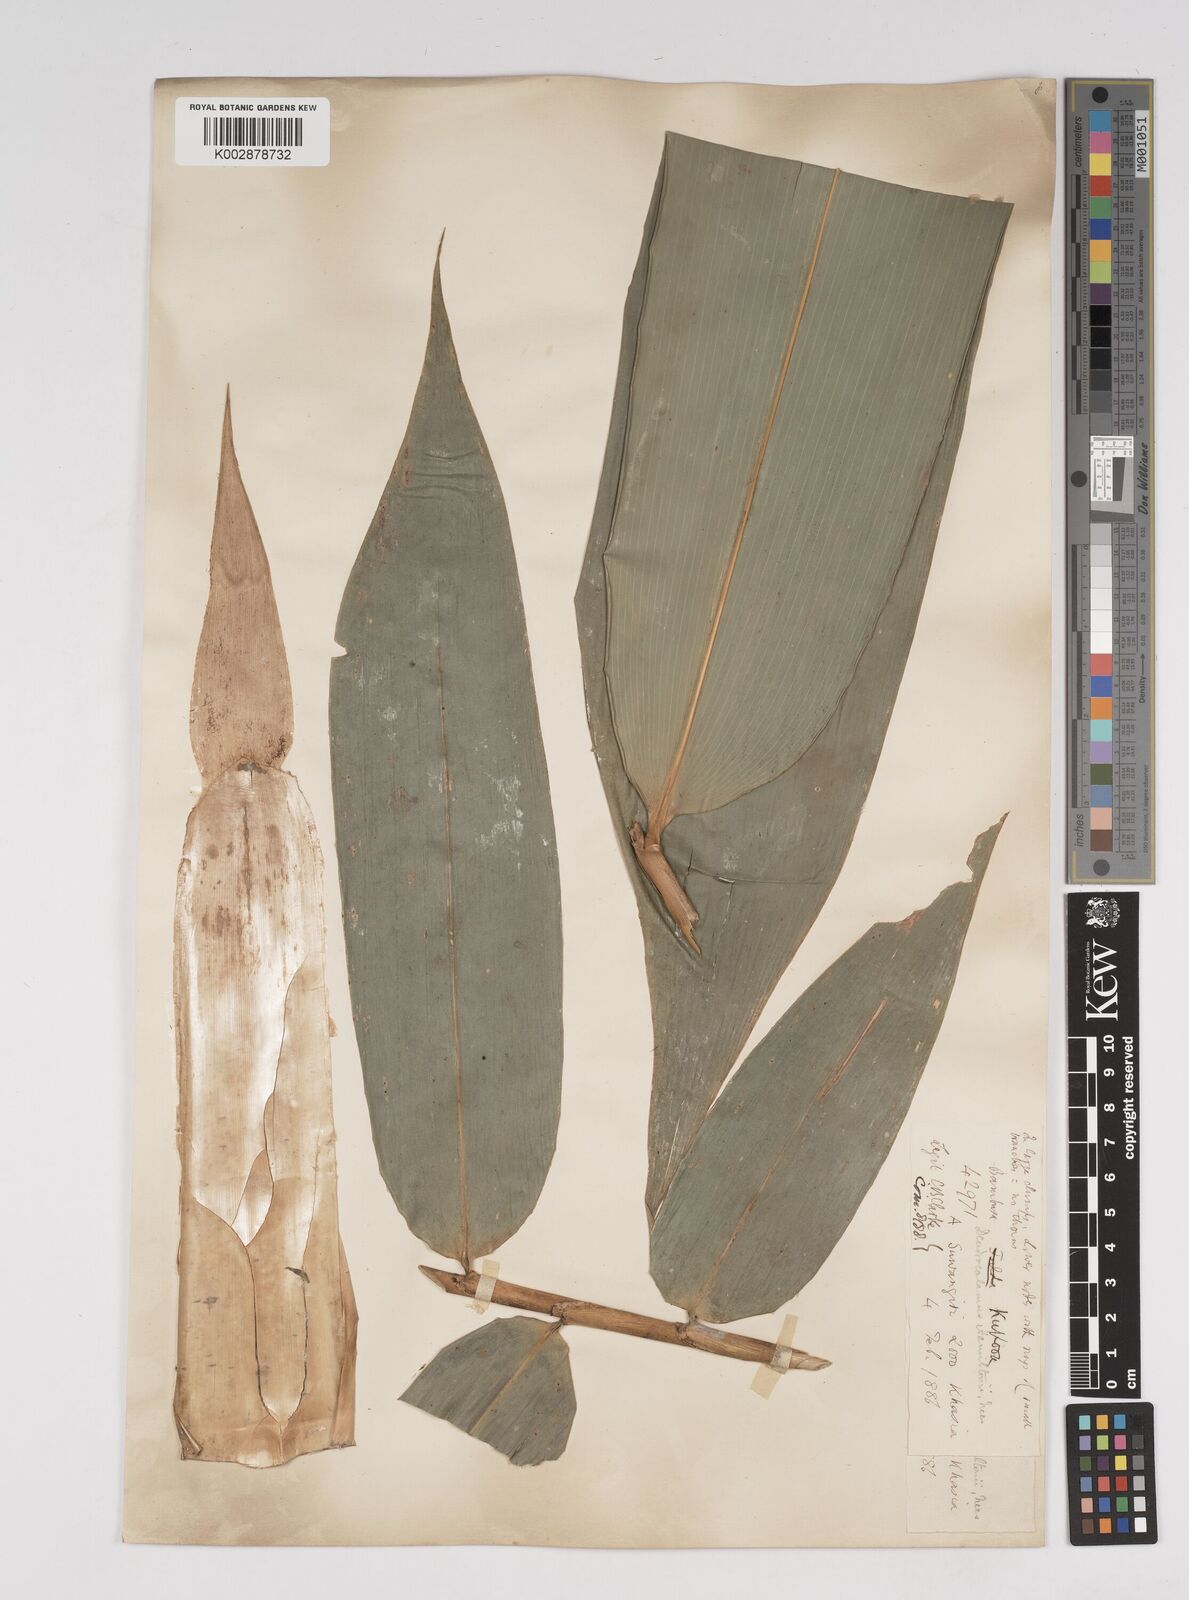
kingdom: Plantae
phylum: Tracheophyta
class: Liliopsida
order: Poales
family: Poaceae
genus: Dendrocalamus
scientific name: Dendrocalamus hamiltonii
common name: Tama bamboo
